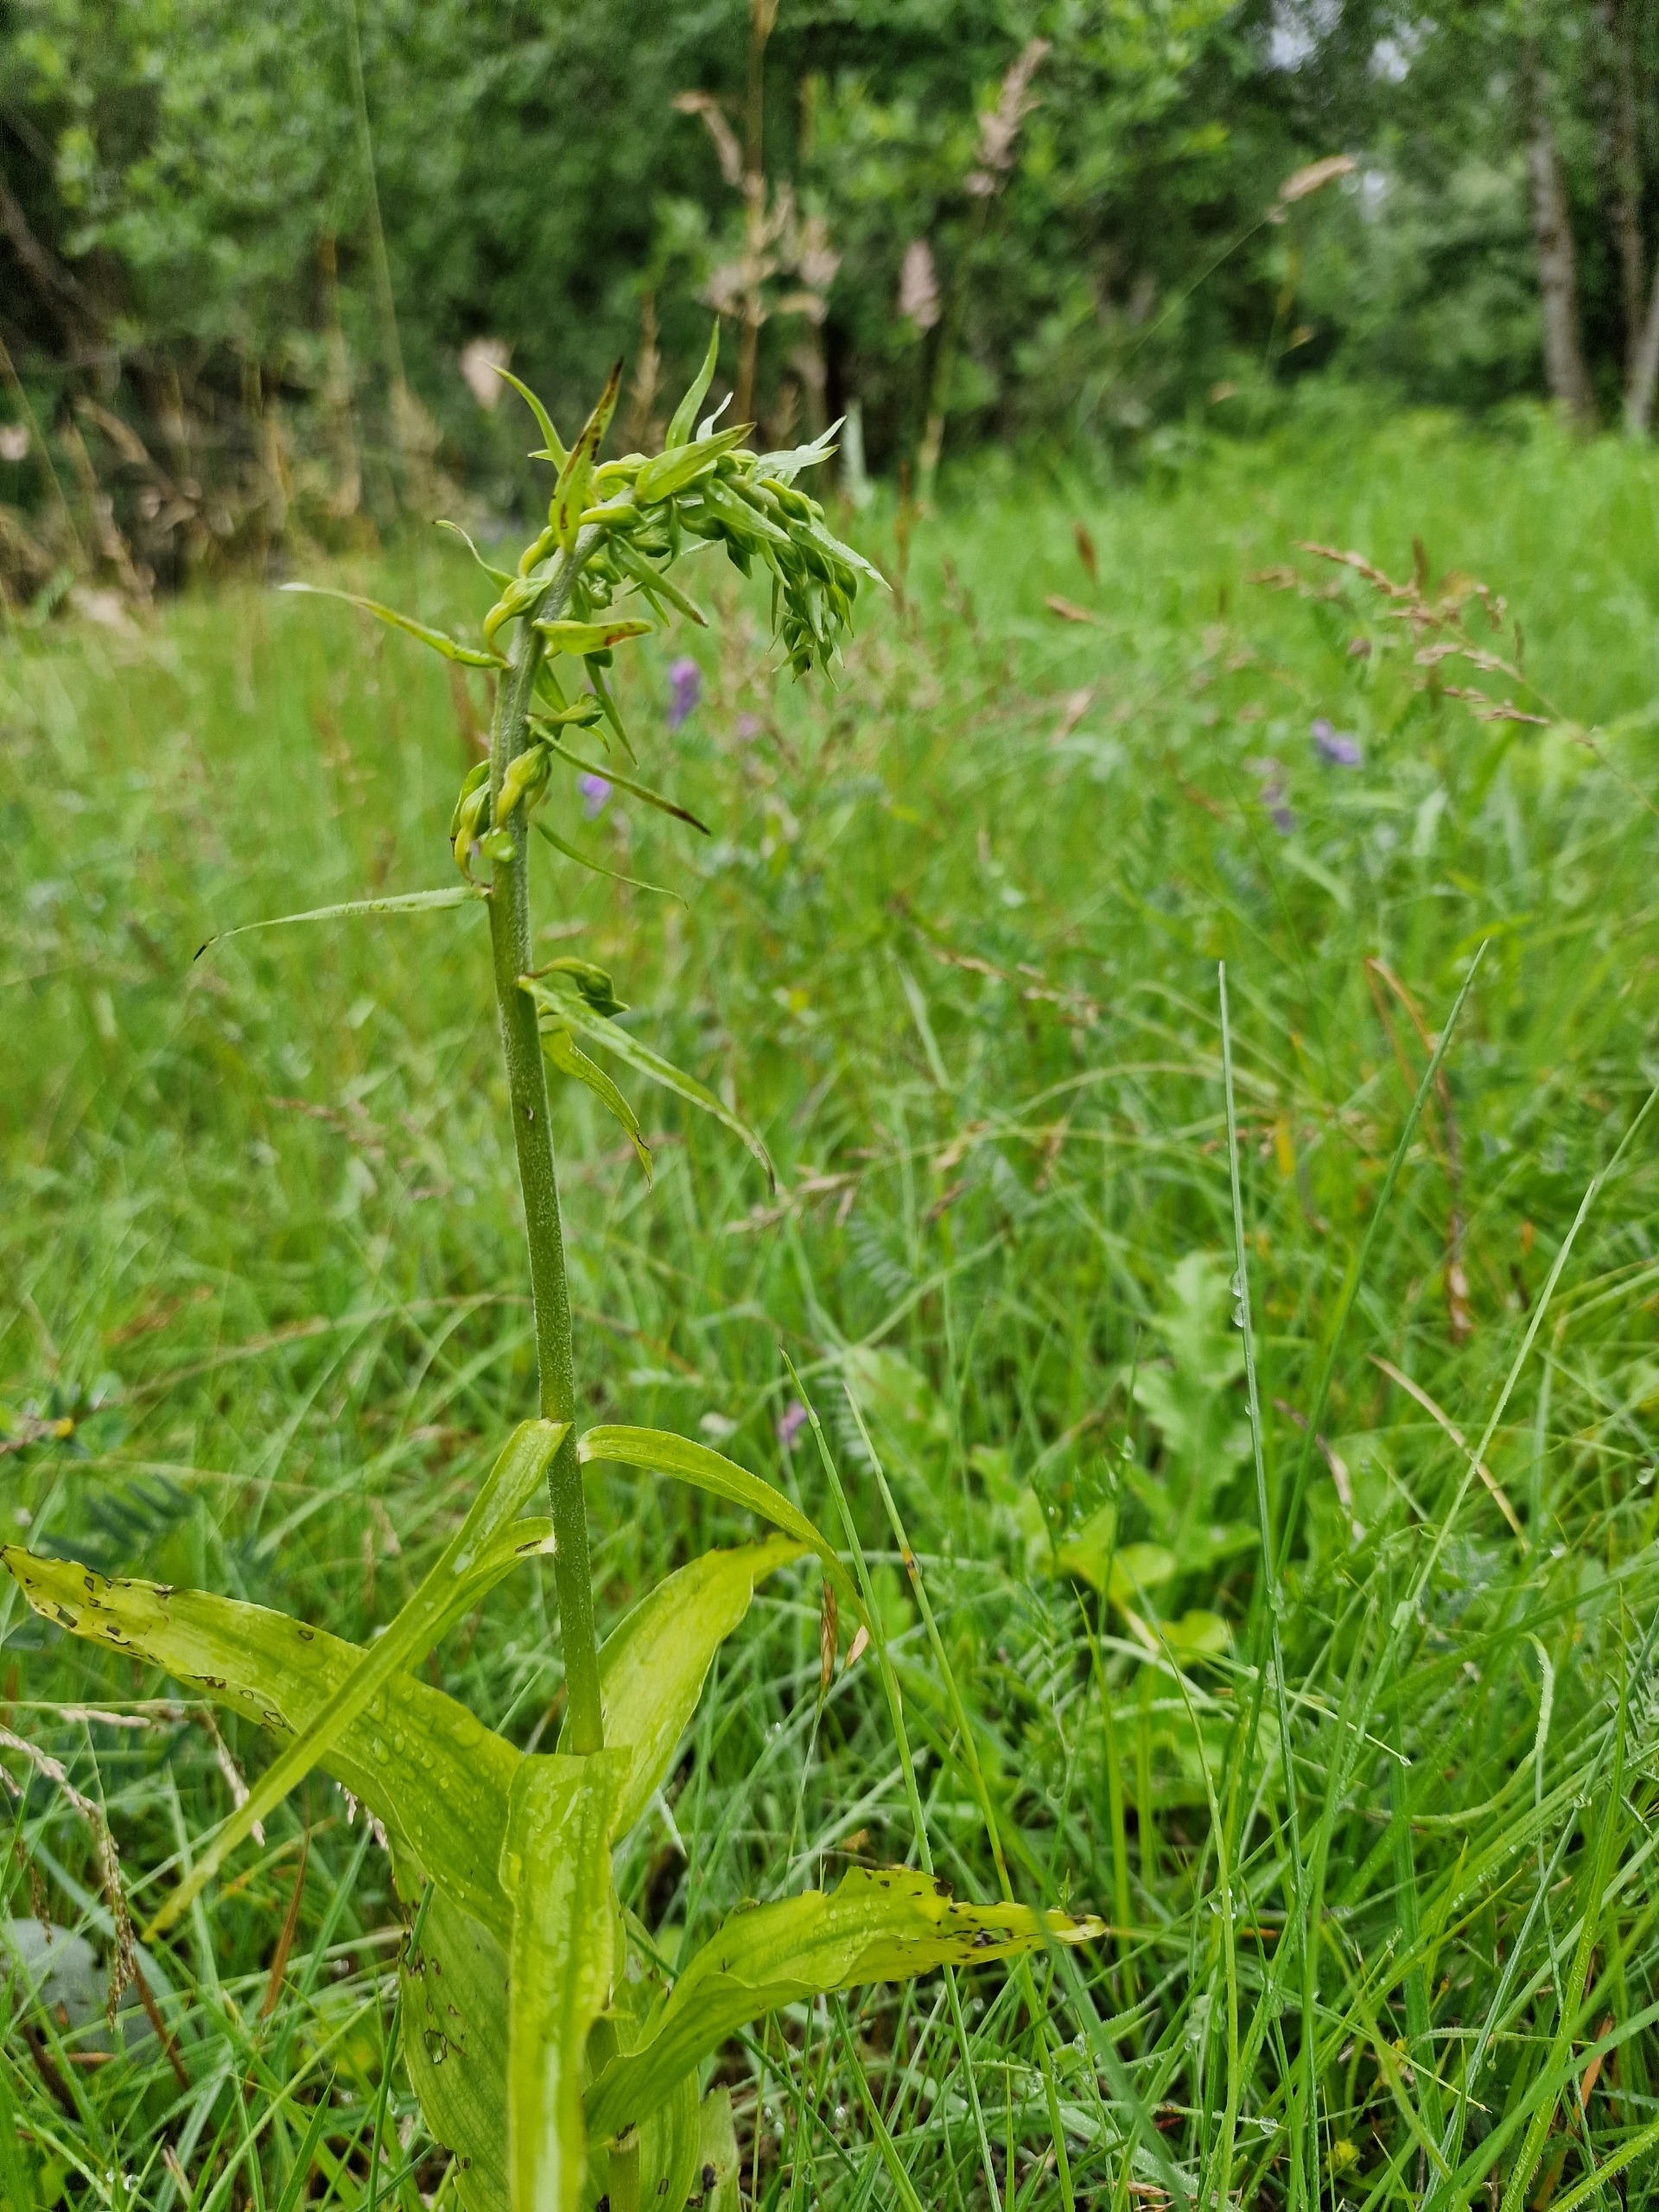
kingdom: Plantae
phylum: Tracheophyta
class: Liliopsida
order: Asparagales
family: Orchidaceae
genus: Epipactis
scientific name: Epipactis helleborine
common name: Skov-hullæbe
